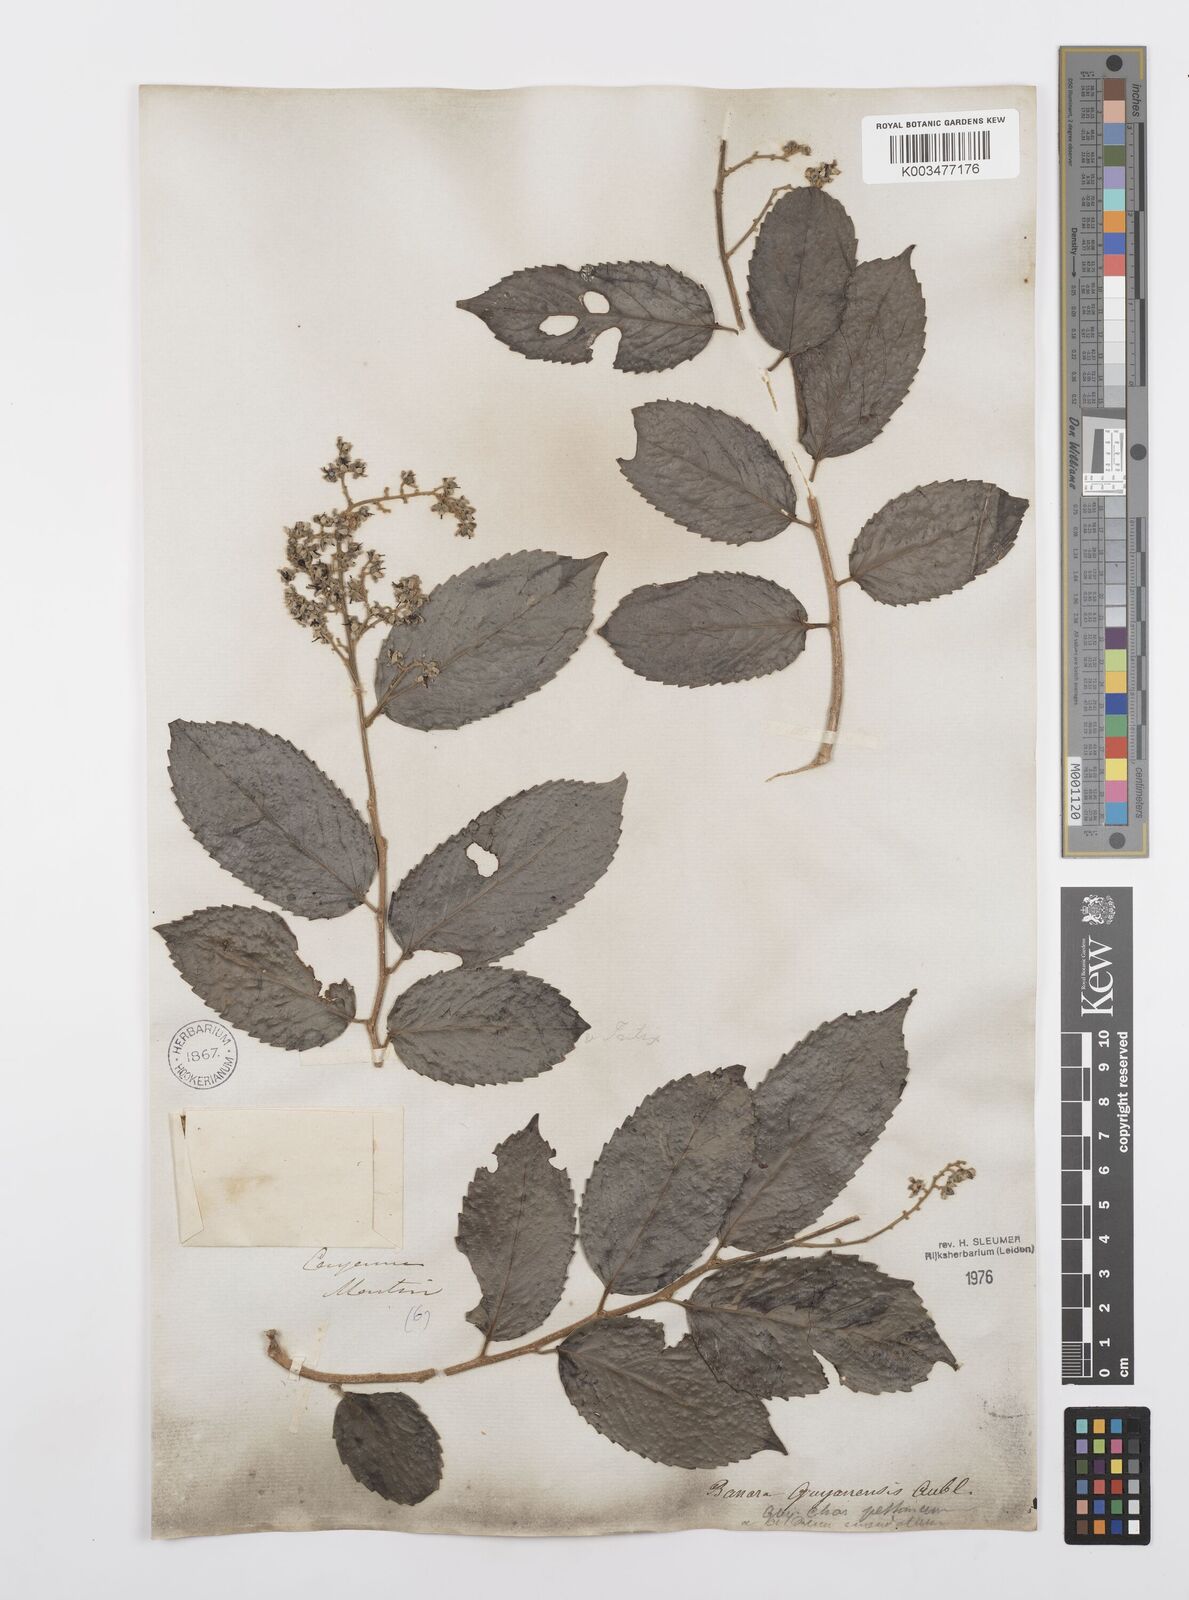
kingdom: Plantae
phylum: Tracheophyta
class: Magnoliopsida
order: Malpighiales
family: Salicaceae
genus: Banara
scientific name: Banara guianensis
